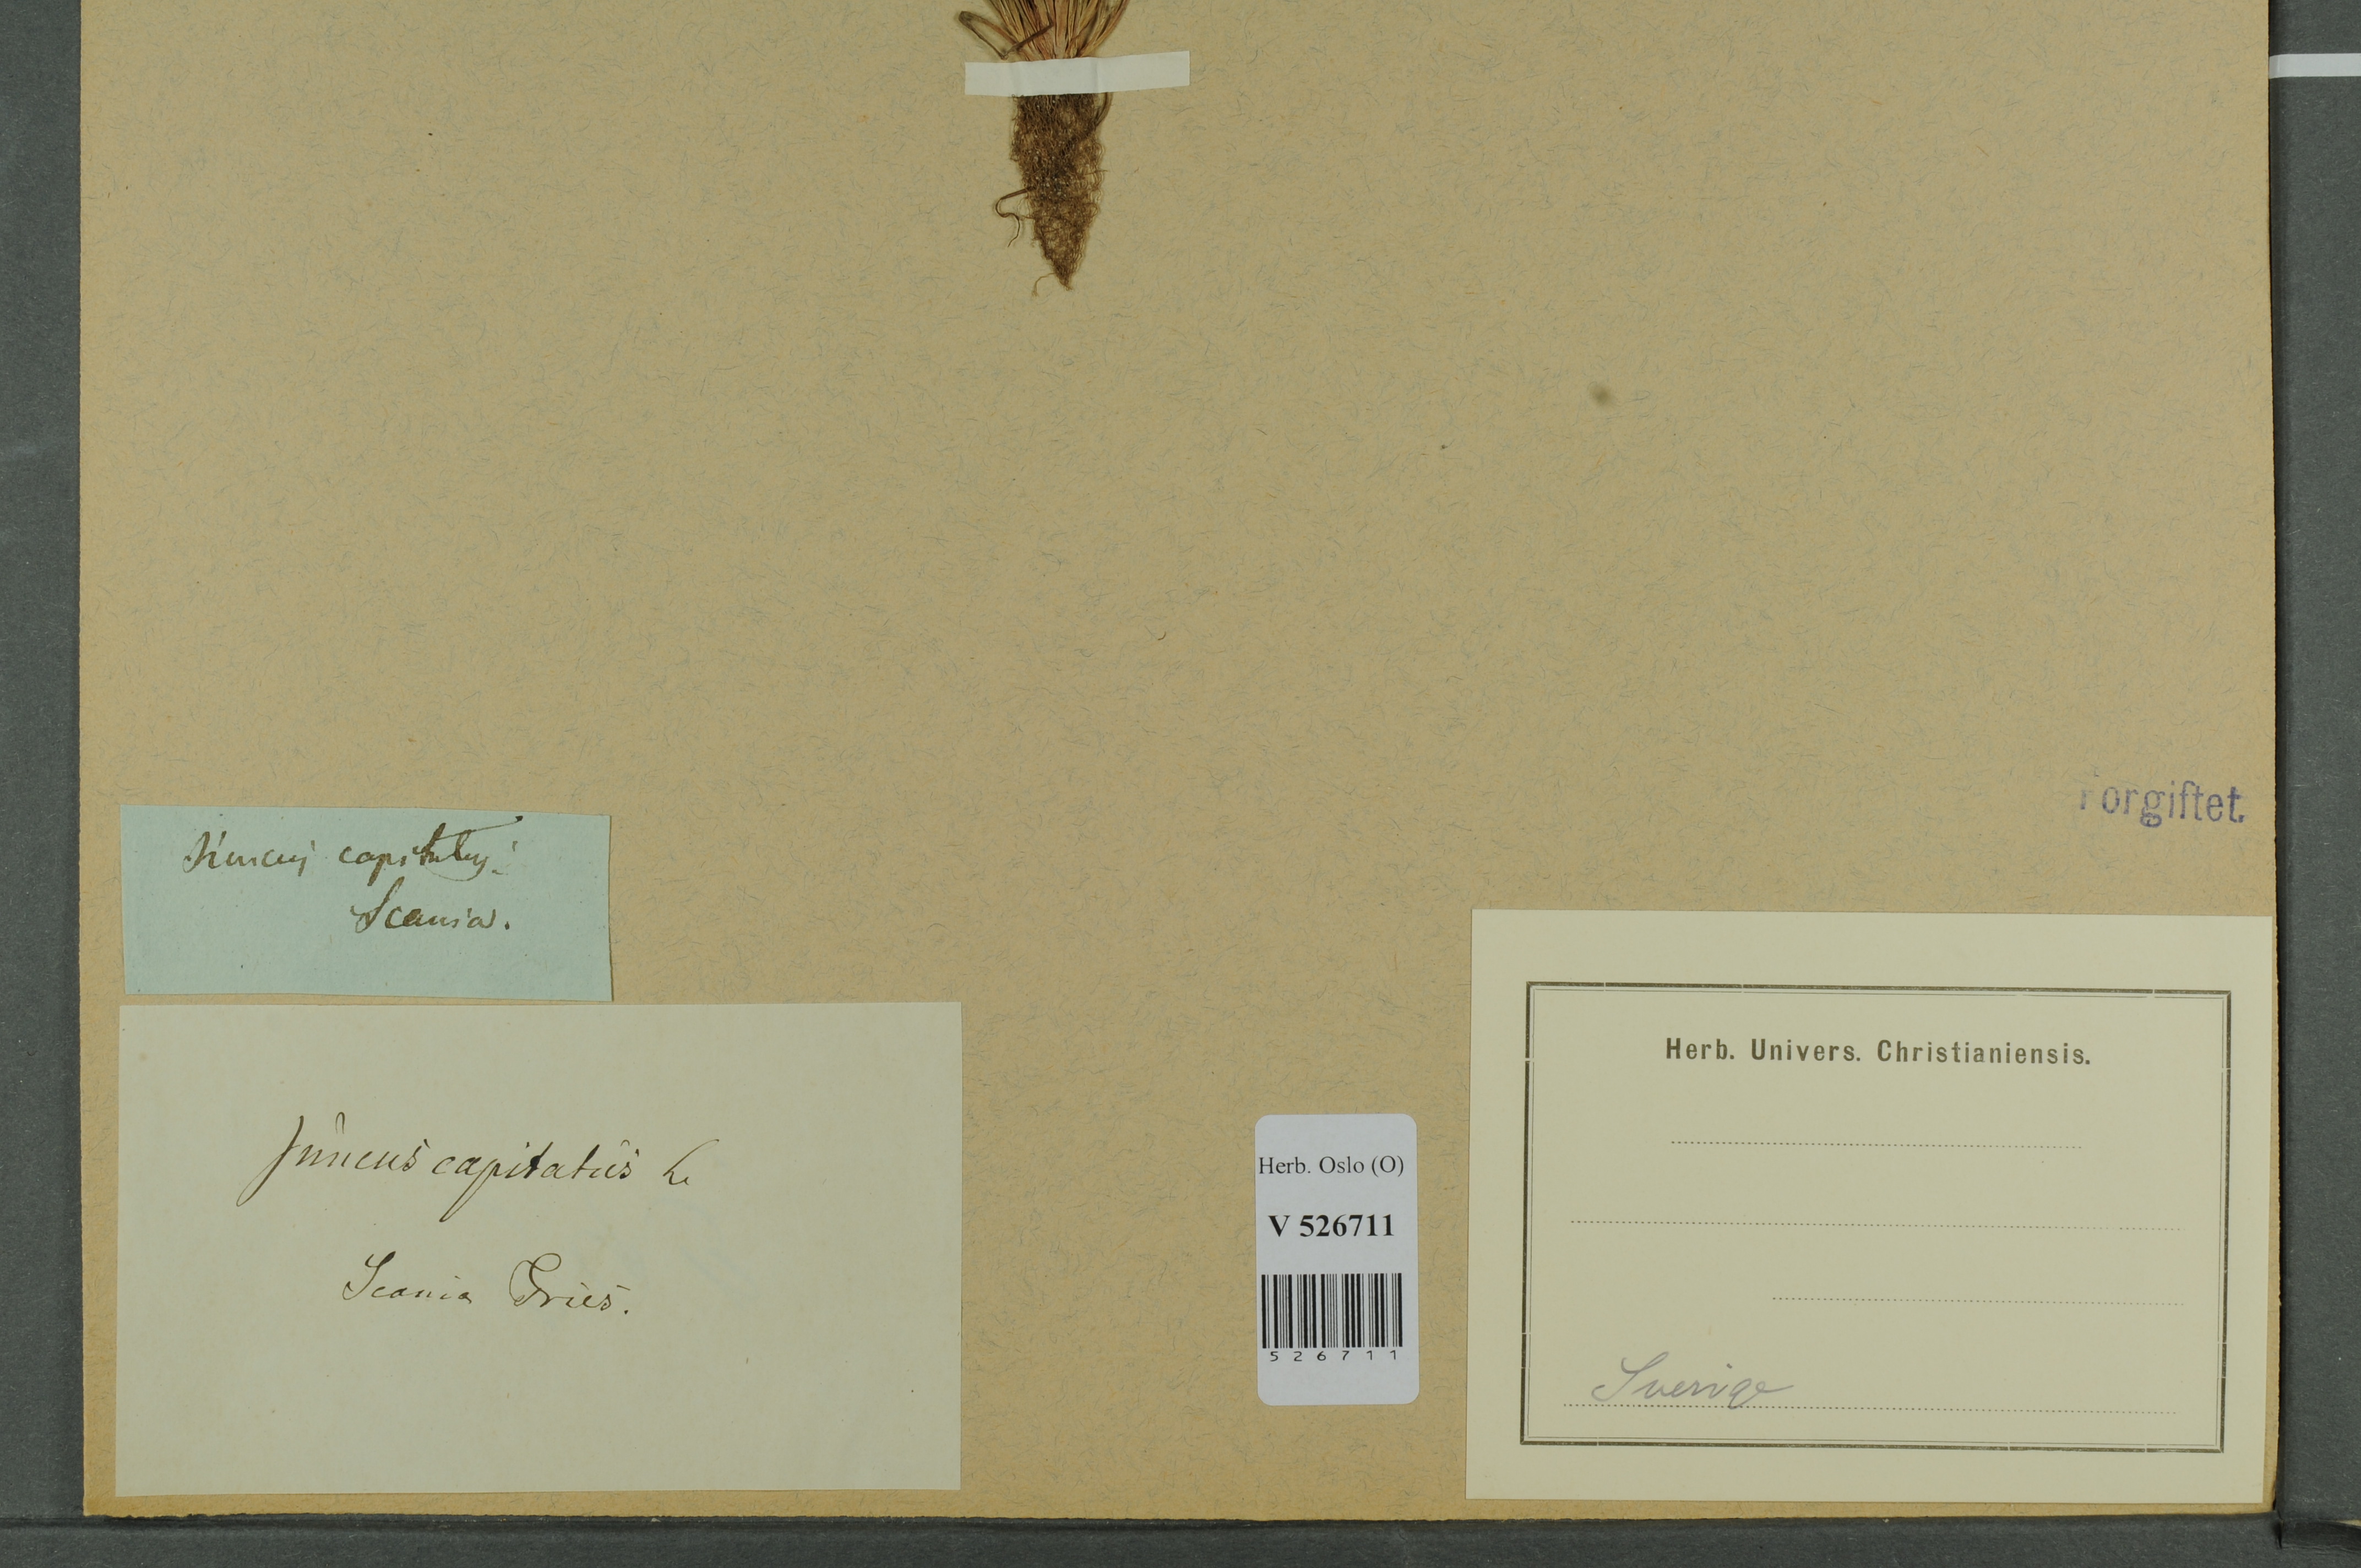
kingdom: Plantae
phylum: Tracheophyta
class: Liliopsida
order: Poales
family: Juncaceae
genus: Juncus
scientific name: Juncus capitatus
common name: Dwarf rush
